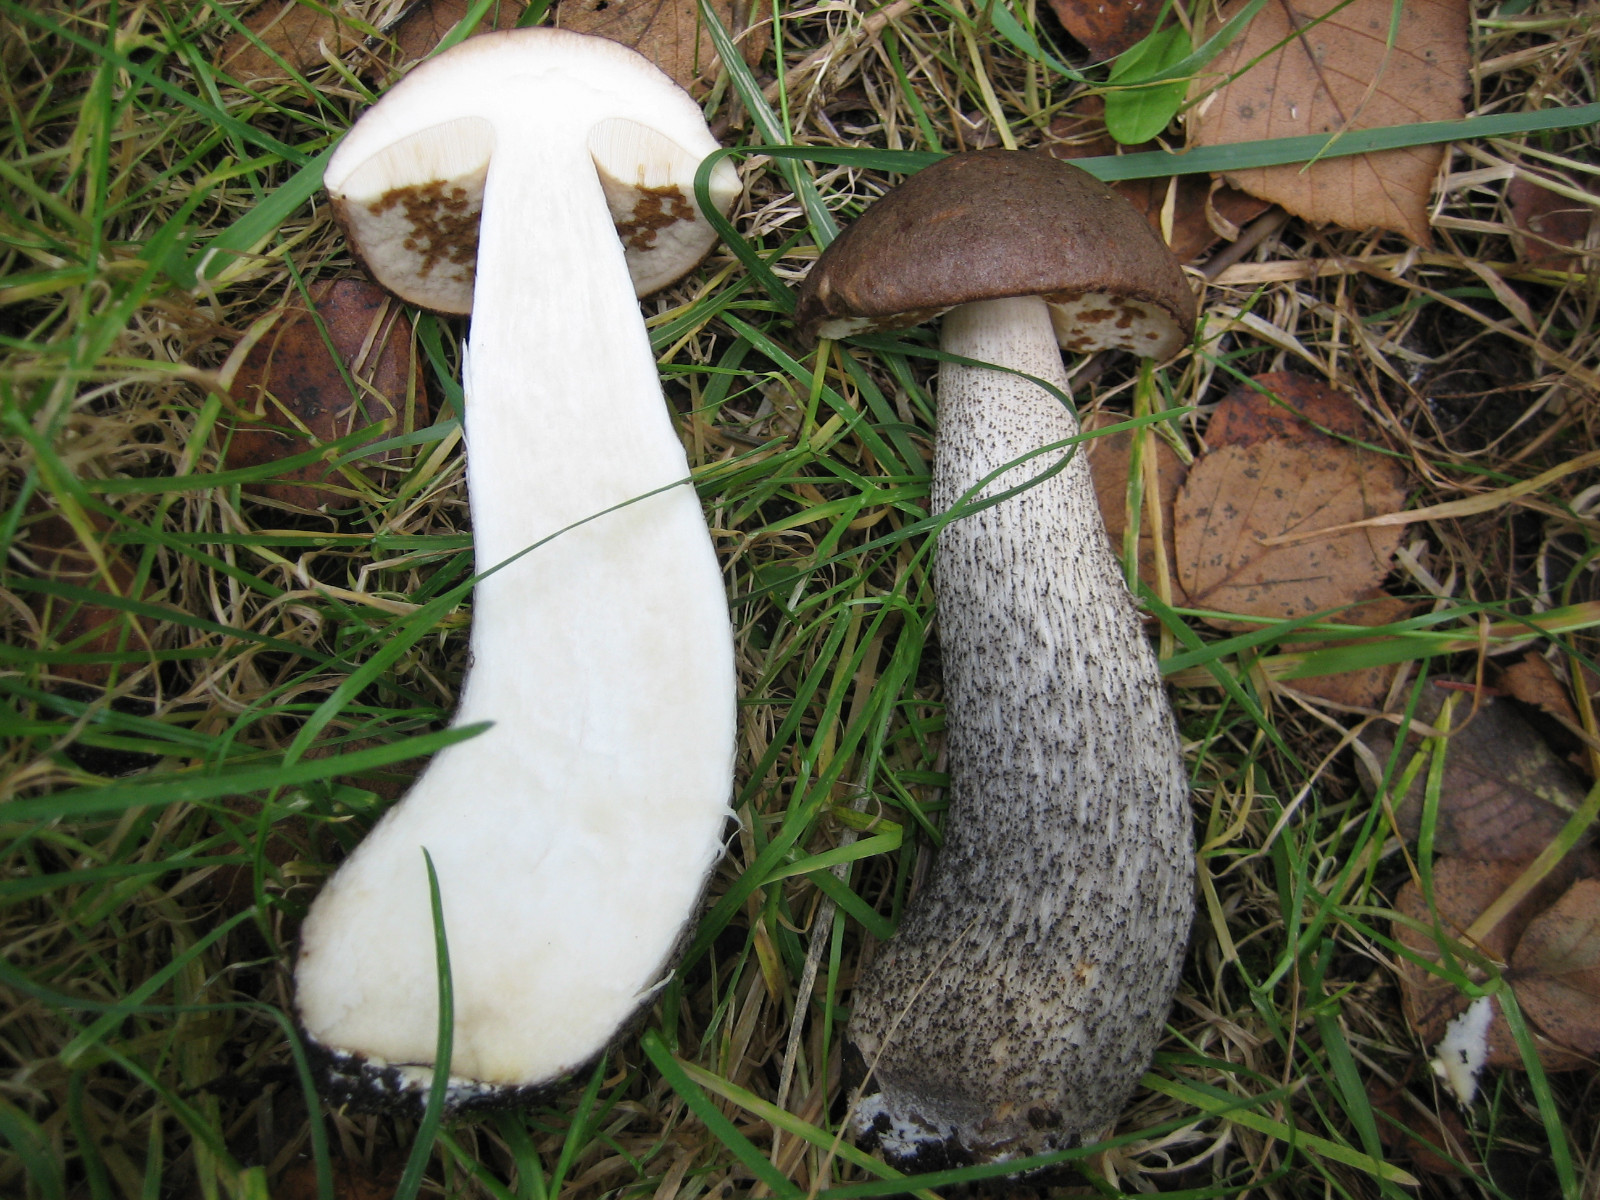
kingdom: Fungi
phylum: Basidiomycota
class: Agaricomycetes
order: Boletales
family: Boletaceae
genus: Leccinum
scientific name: Leccinum scabrum
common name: brun skælrørhat
